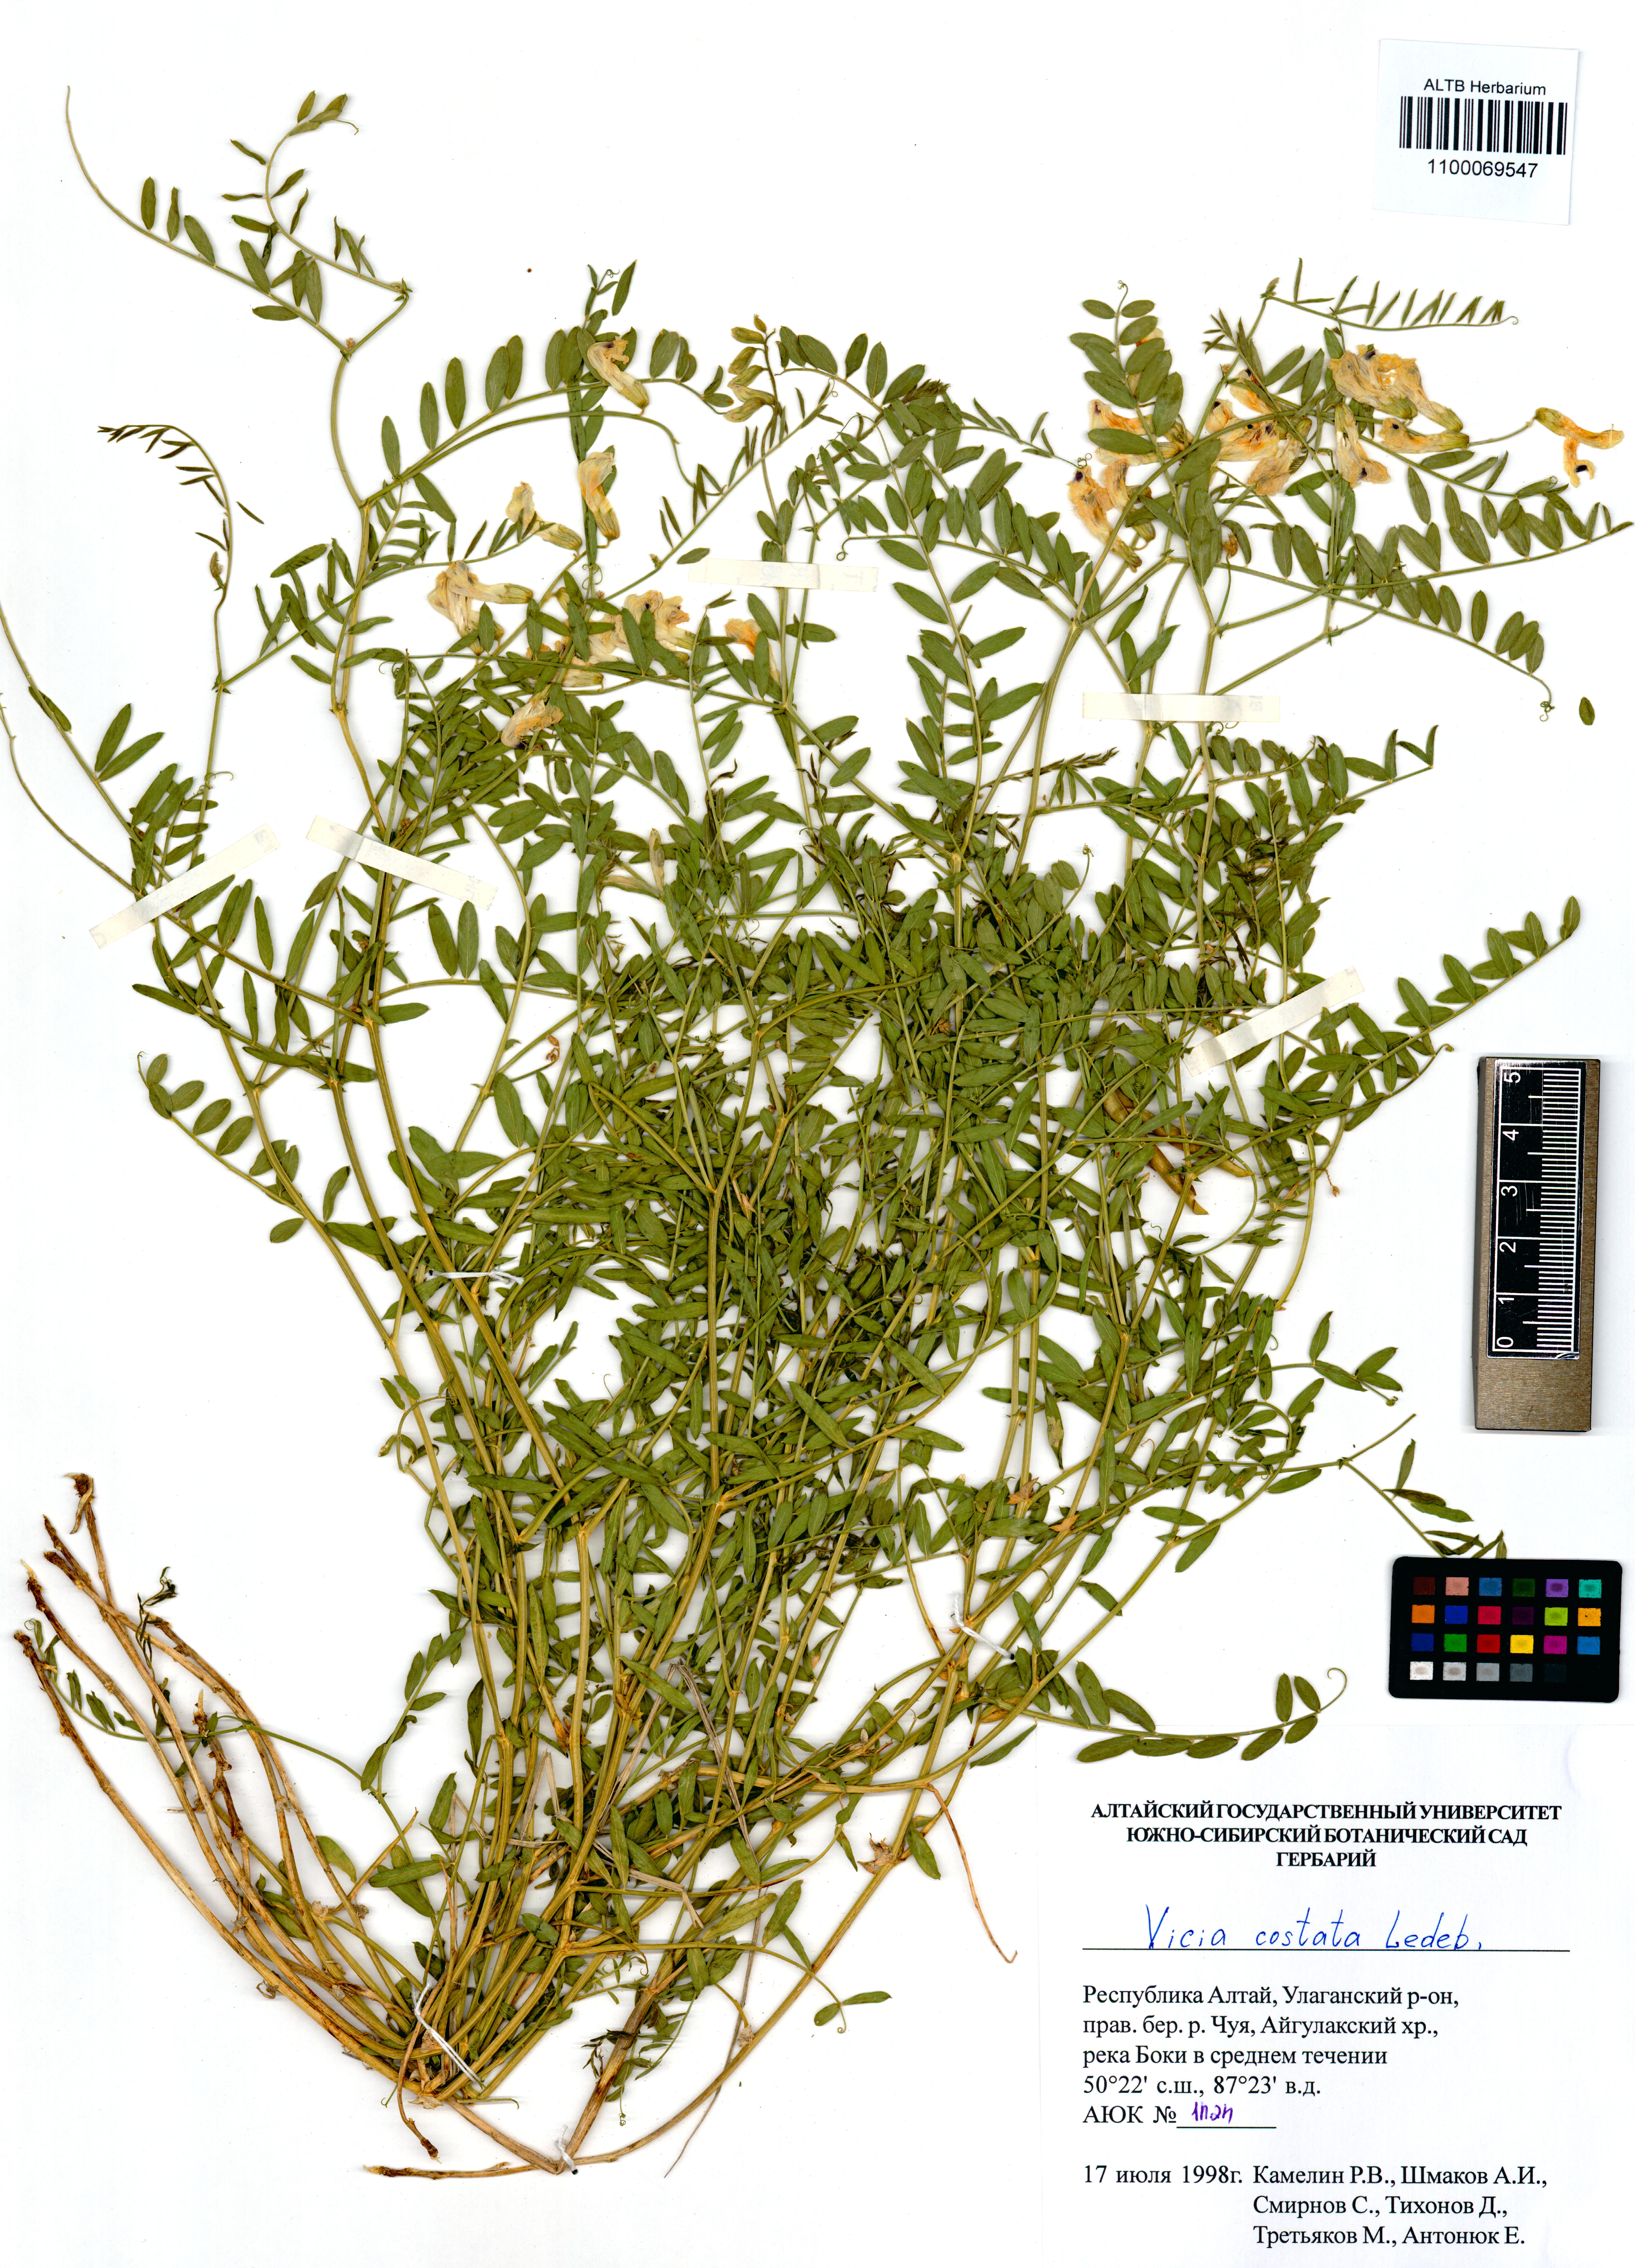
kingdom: Plantae
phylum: Tracheophyta
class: Magnoliopsida
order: Fabales
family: Fabaceae
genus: Vicia
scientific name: Vicia costata
